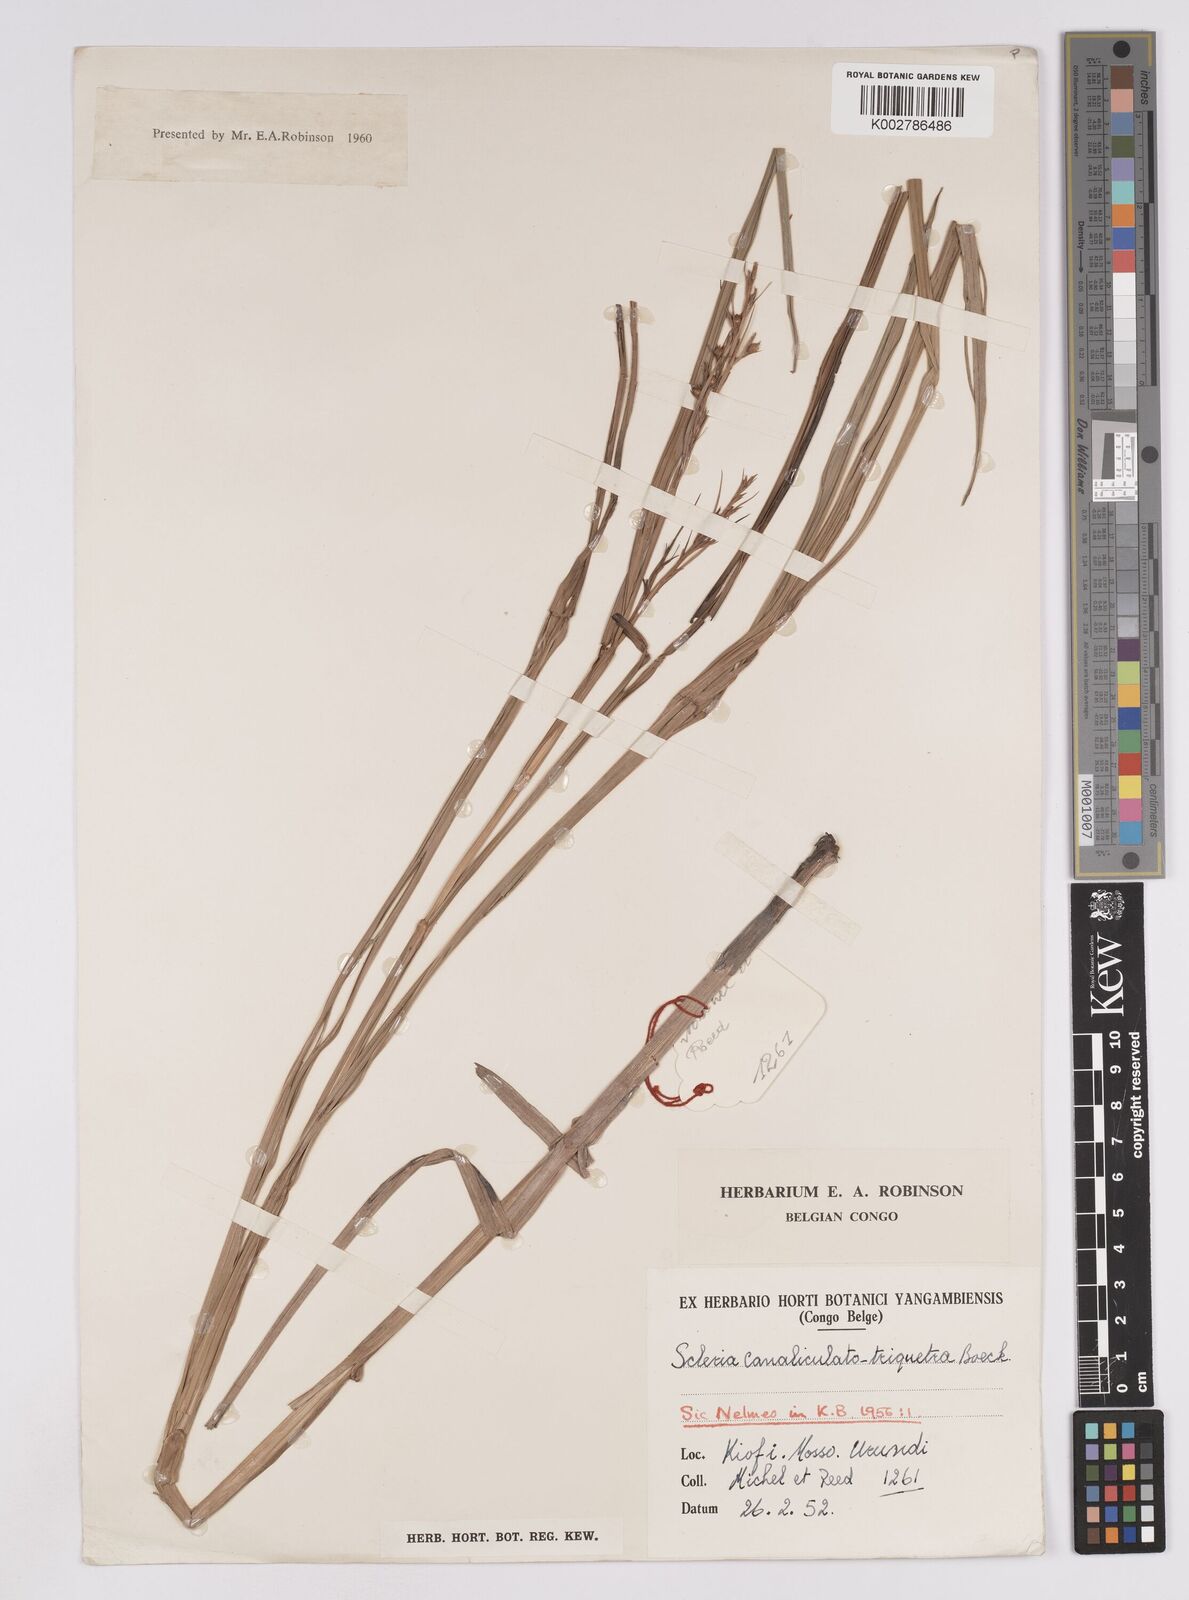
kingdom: Plantae
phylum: Tracheophyta
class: Liliopsida
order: Poales
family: Cyperaceae
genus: Scleria
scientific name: Scleria lagoensis
